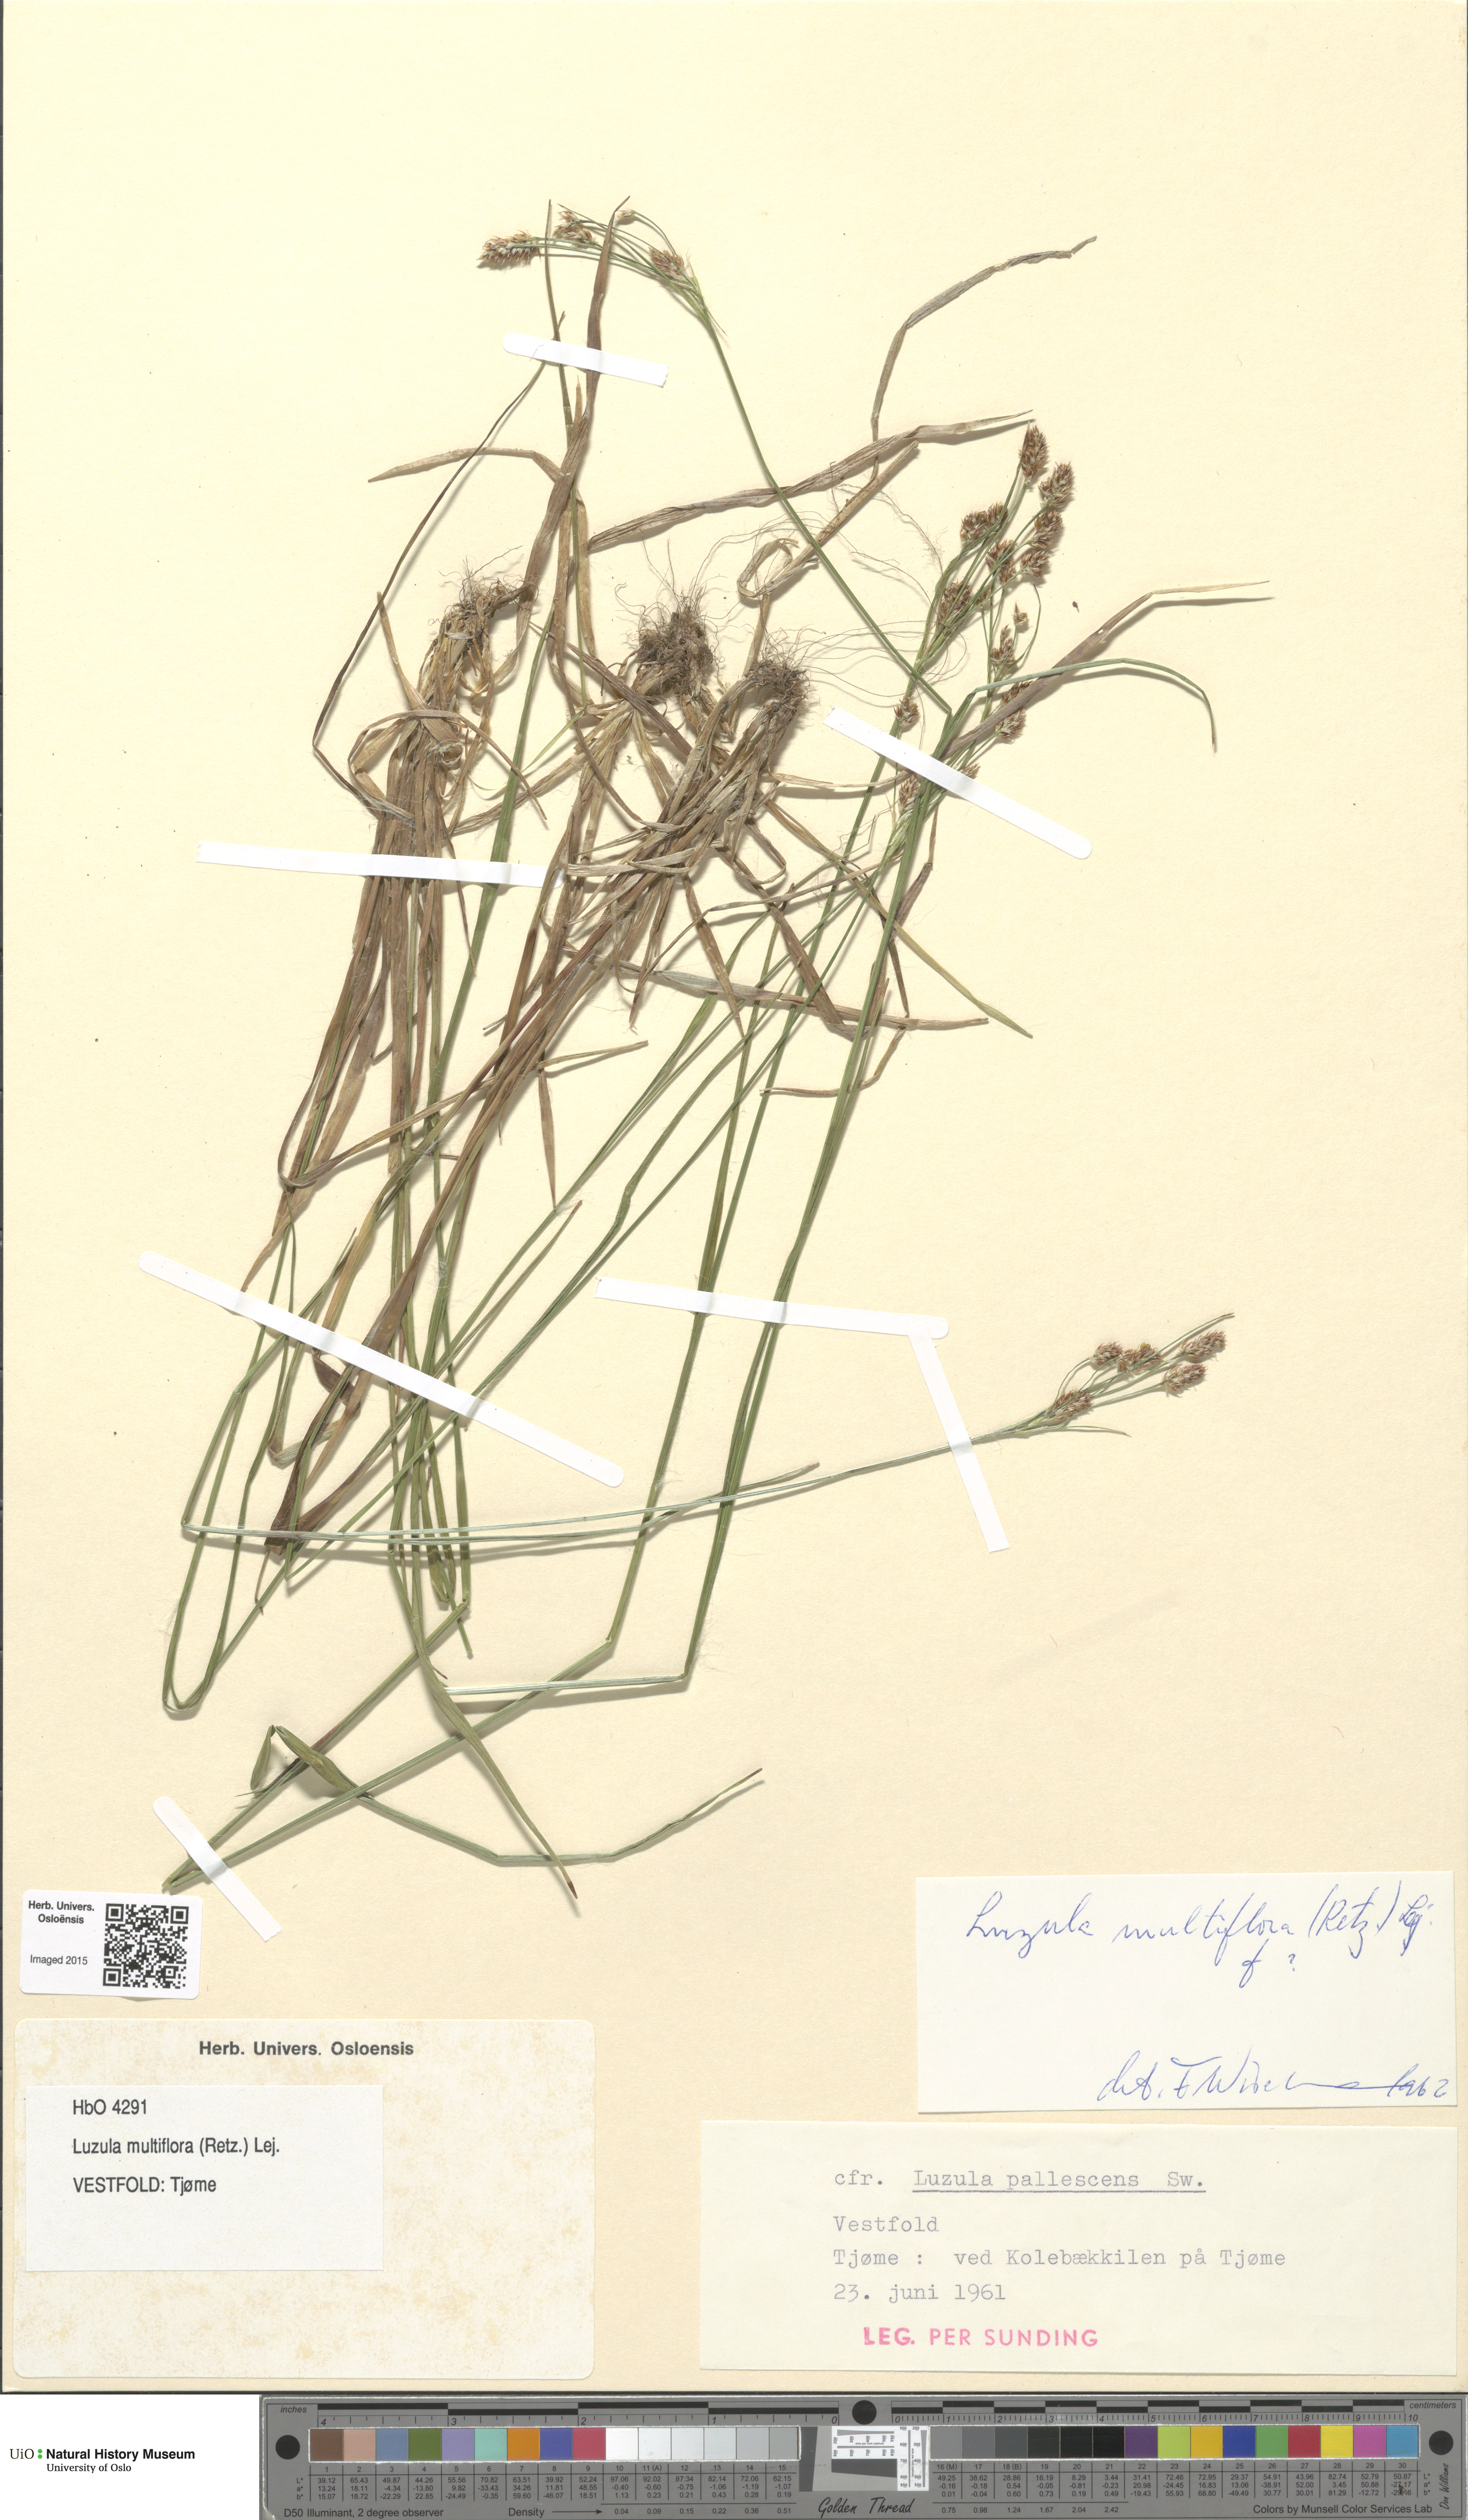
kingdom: Plantae
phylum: Tracheophyta
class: Liliopsida
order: Poales
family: Juncaceae
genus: Luzula
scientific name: Luzula multiflora
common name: Heath wood-rush
